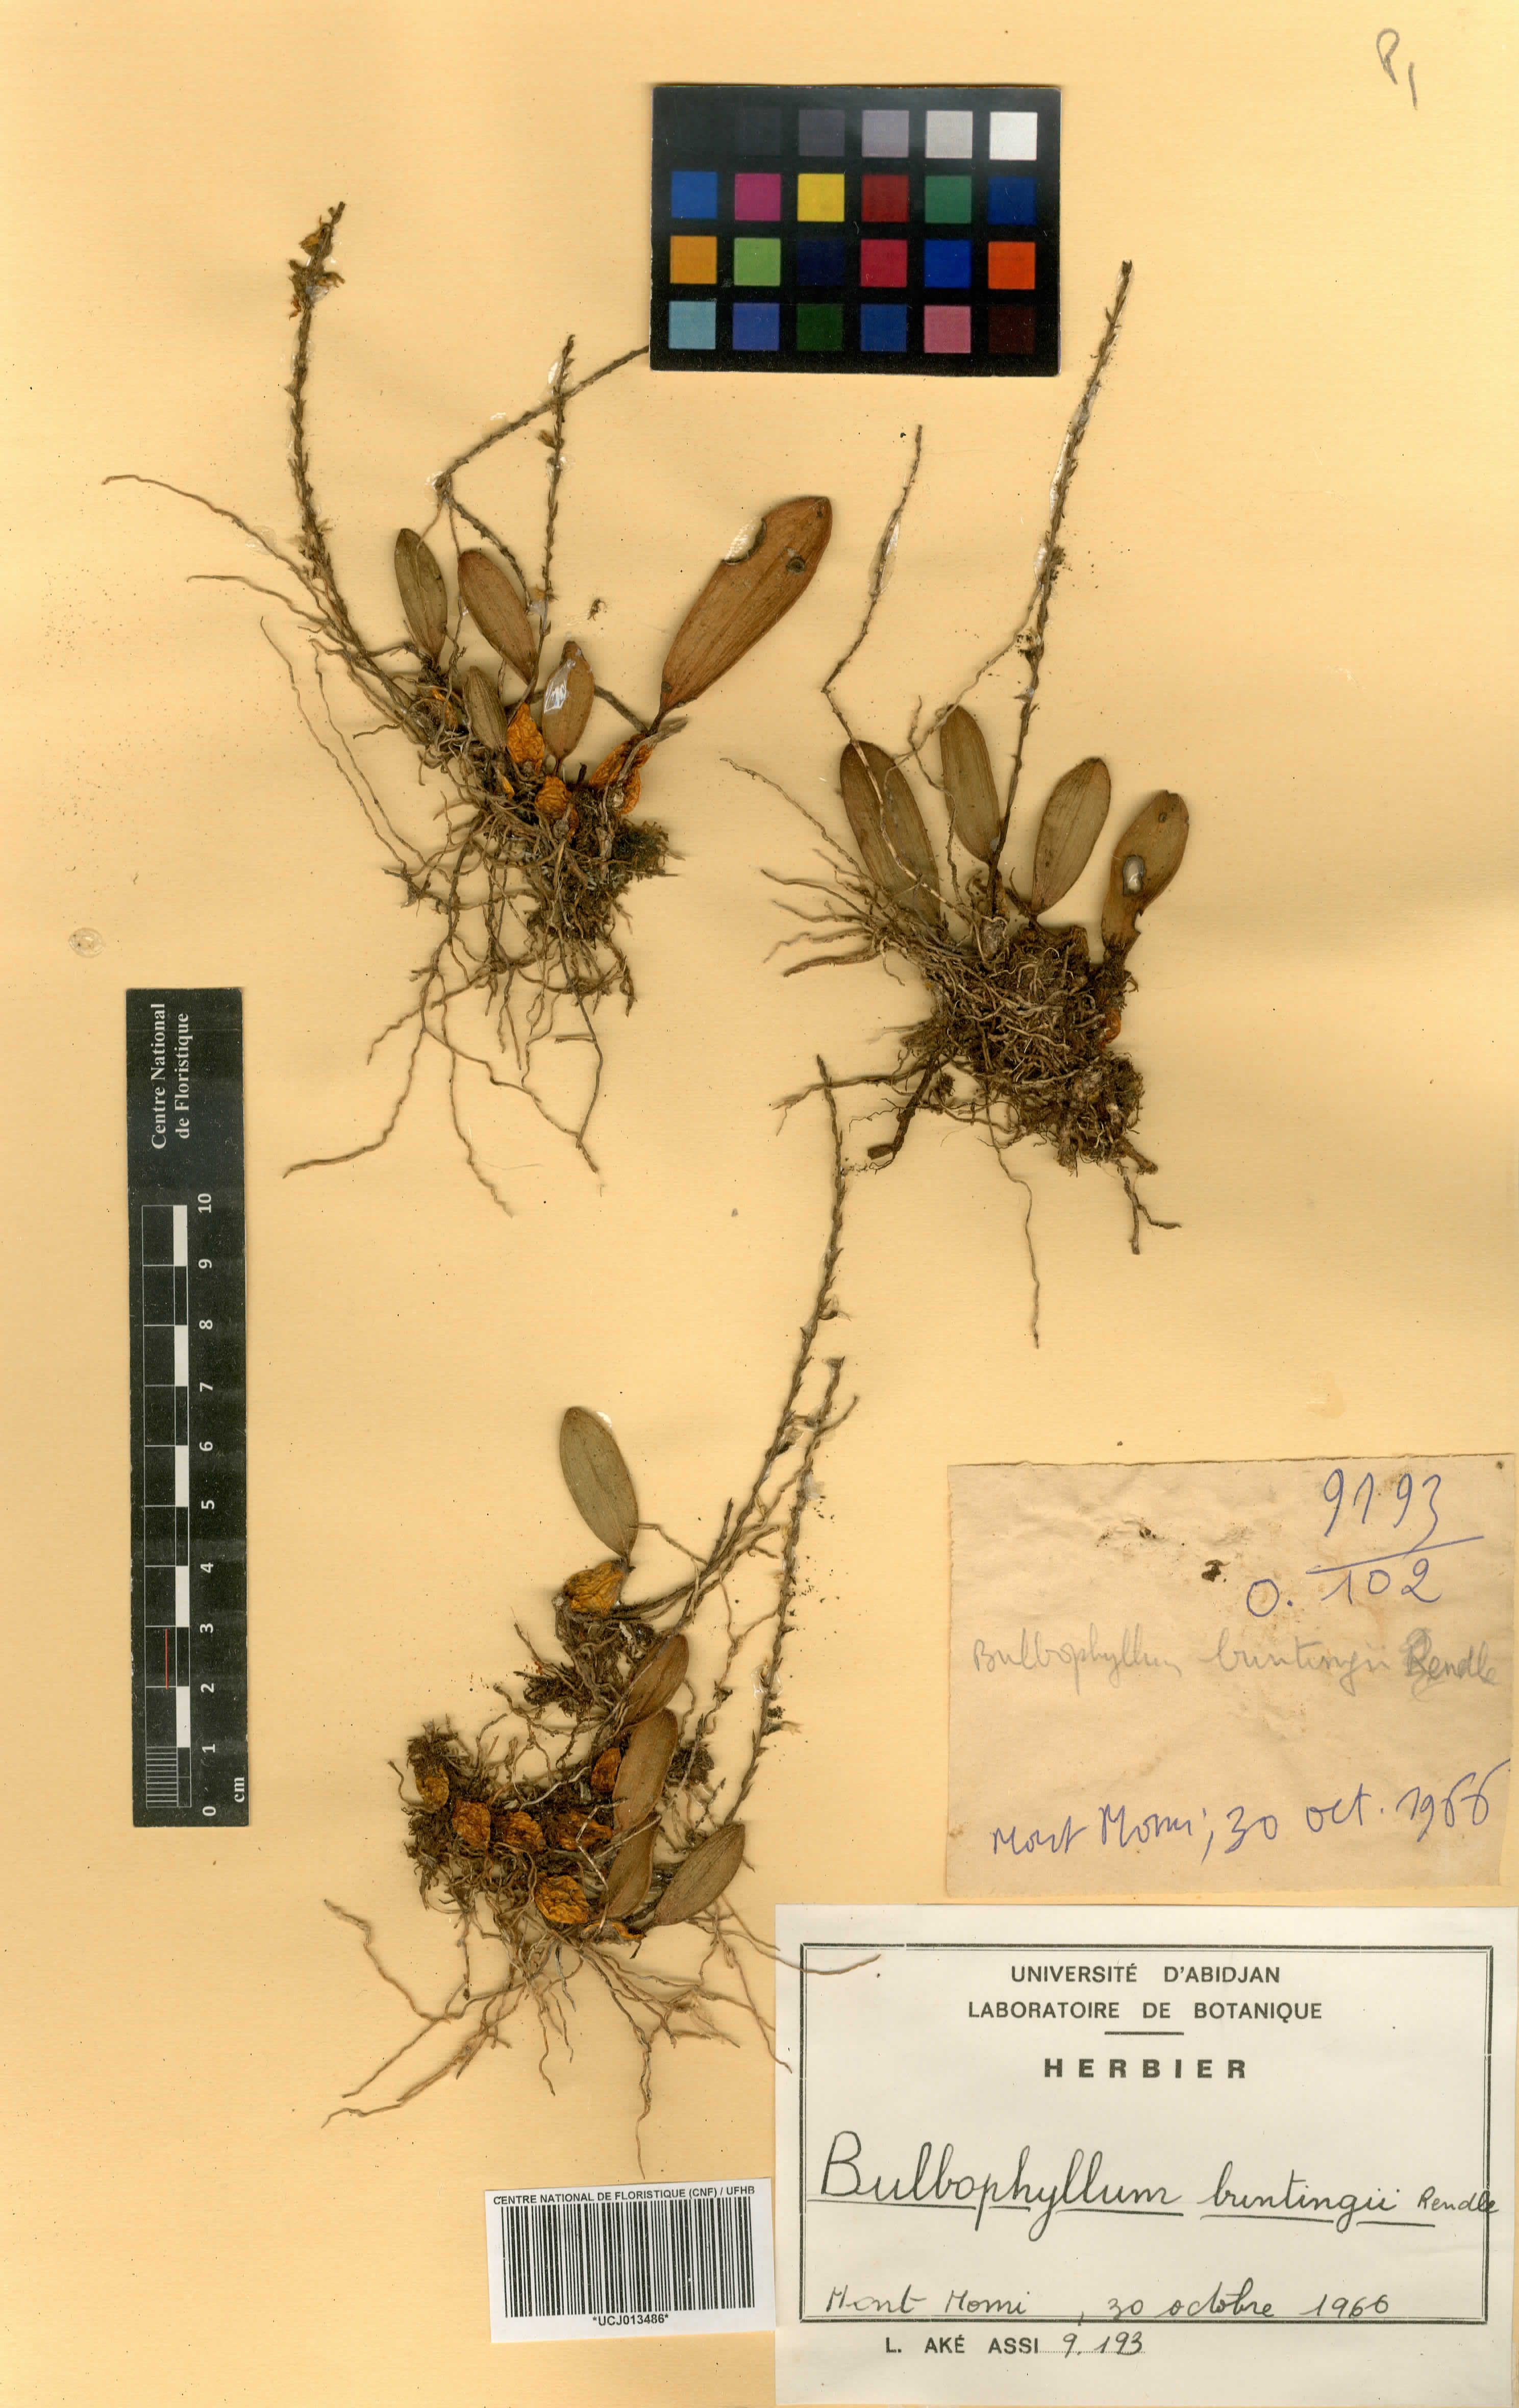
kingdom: Plantae
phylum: Tracheophyta
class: Liliopsida
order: Asparagales
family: Orchidaceae
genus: Bulbophyllum
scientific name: Bulbophyllum oxychilum
